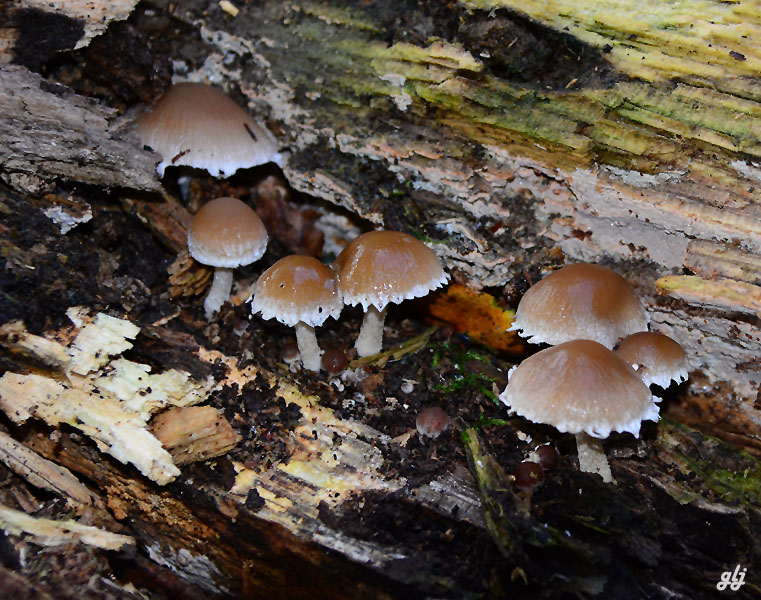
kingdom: Fungi
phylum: Basidiomycota
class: Agaricomycetes
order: Agaricales
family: Psathyrellaceae
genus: Psathyrella
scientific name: Psathyrella spintrigeroides
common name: tandet mørkhat
